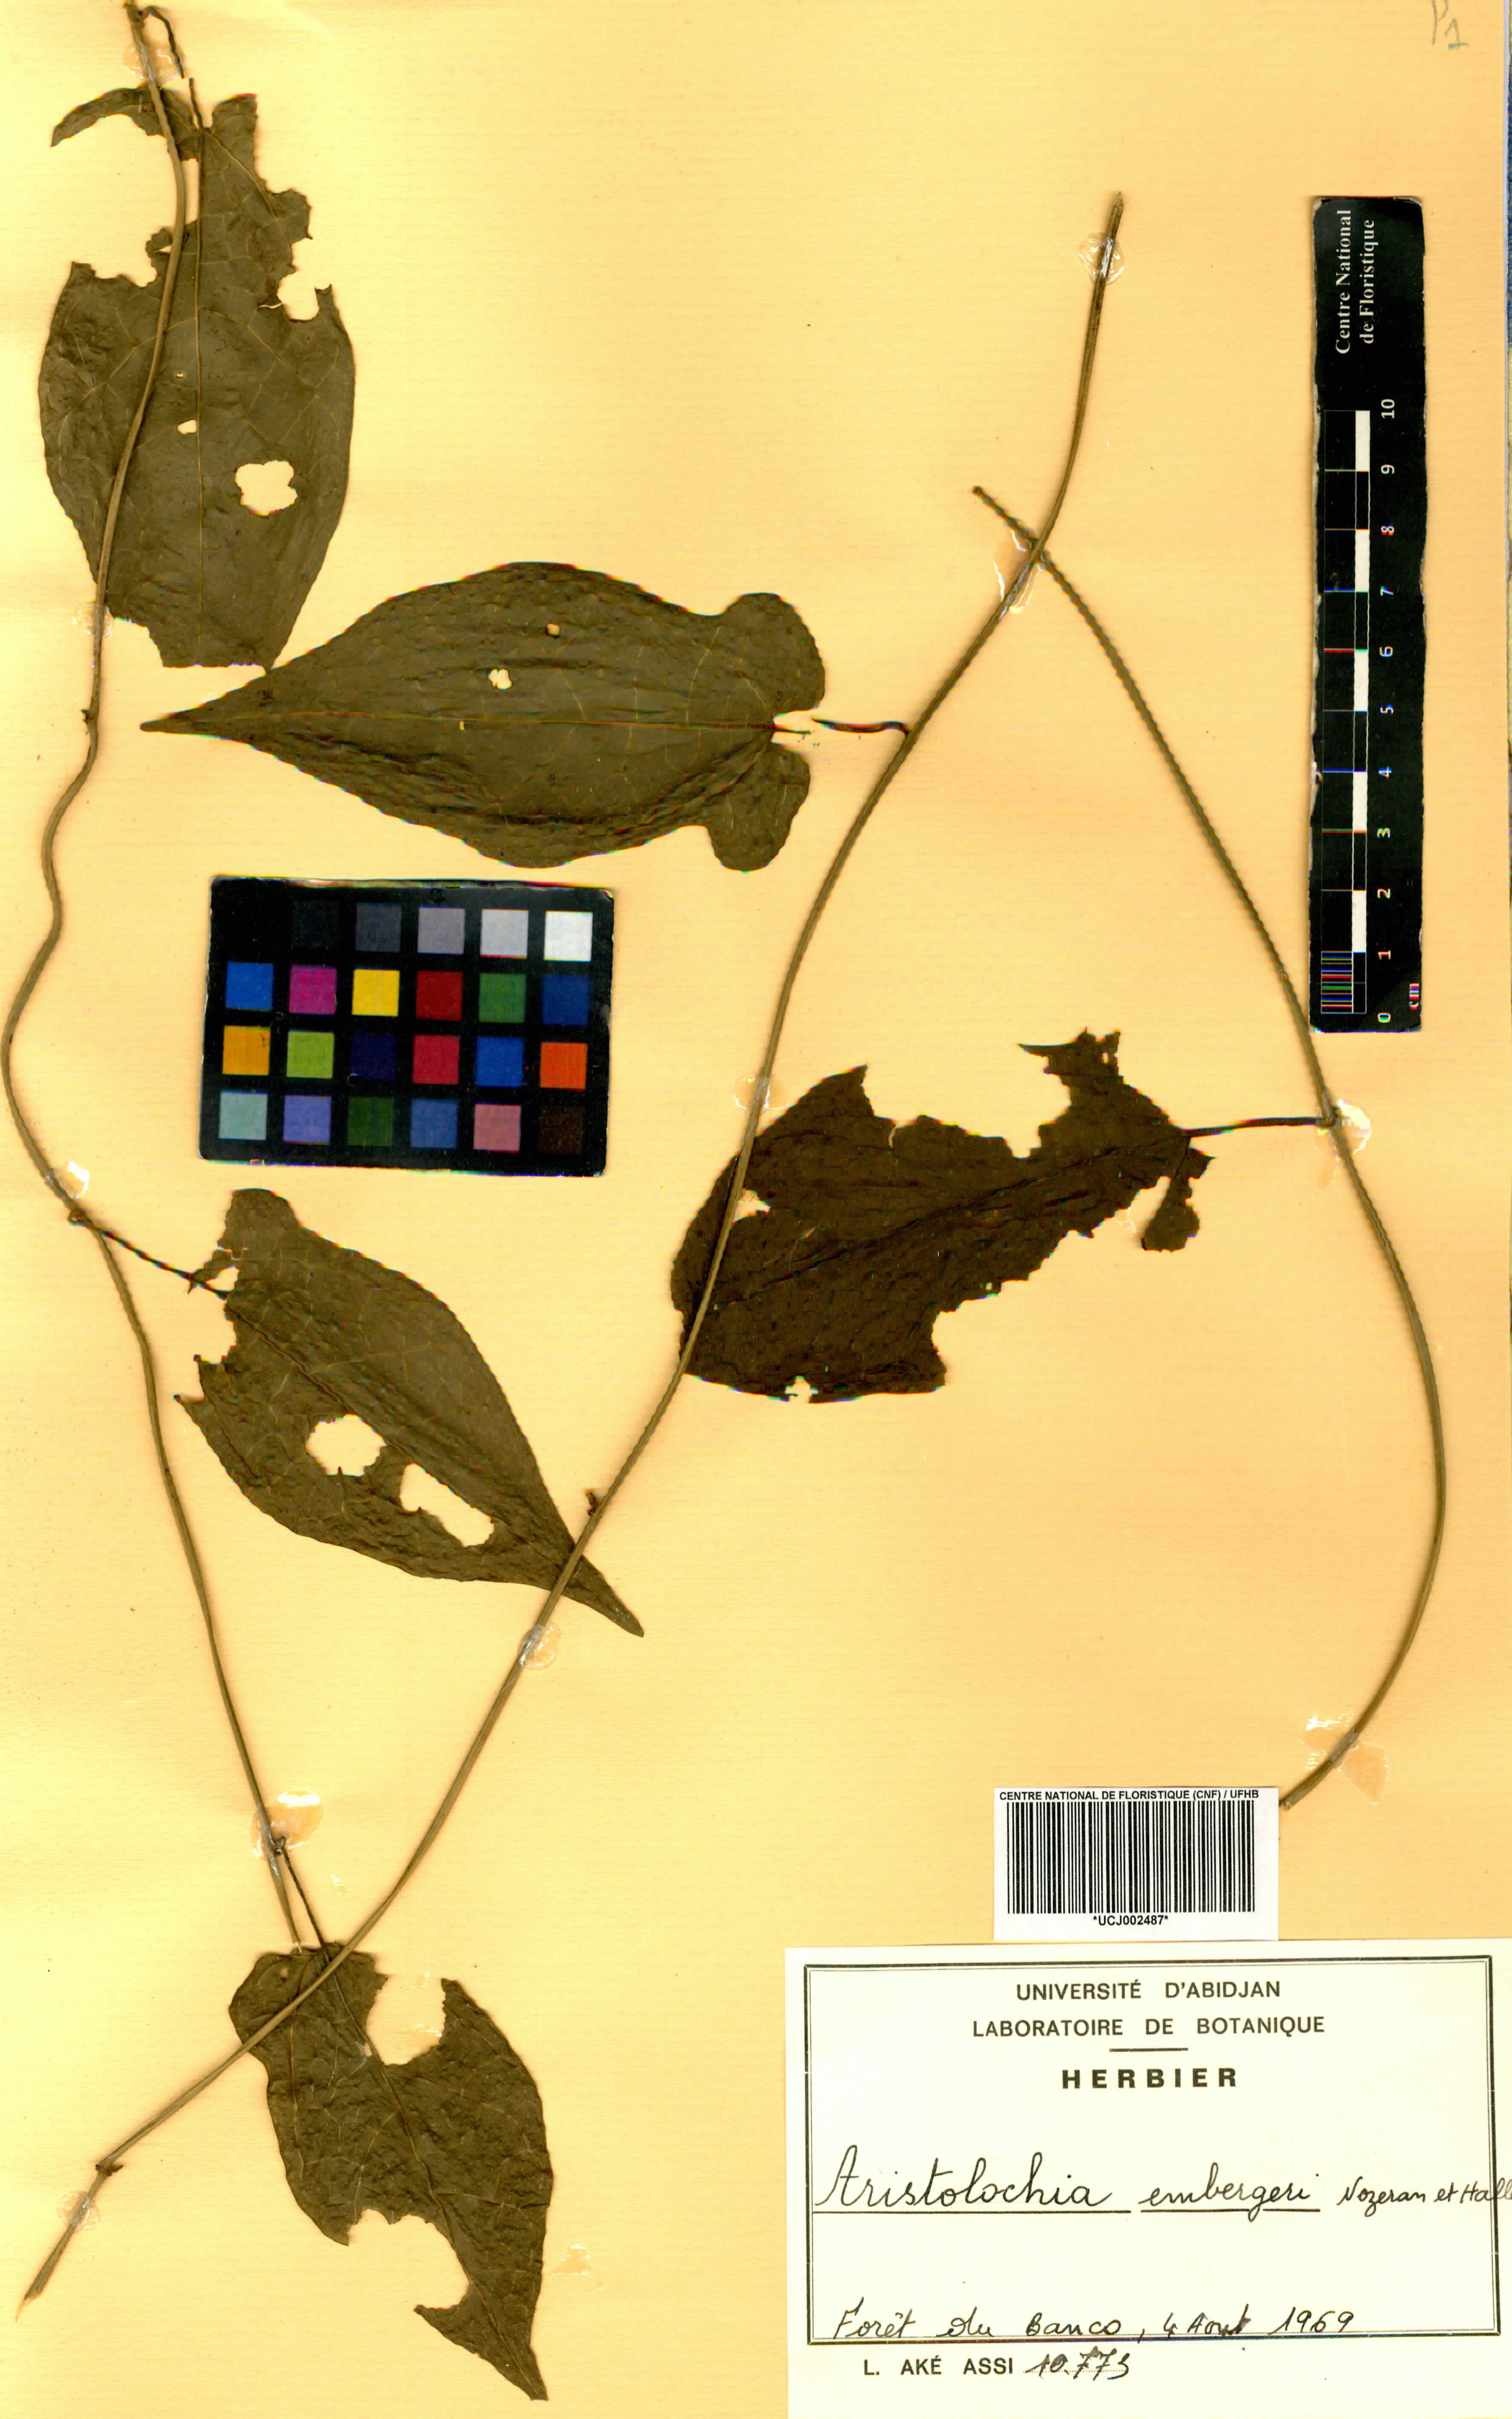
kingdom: Plantae
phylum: Tracheophyta
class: Magnoliopsida
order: Piperales
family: Aristolochiaceae
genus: Aristolochia
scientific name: Aristolochia embergeri
